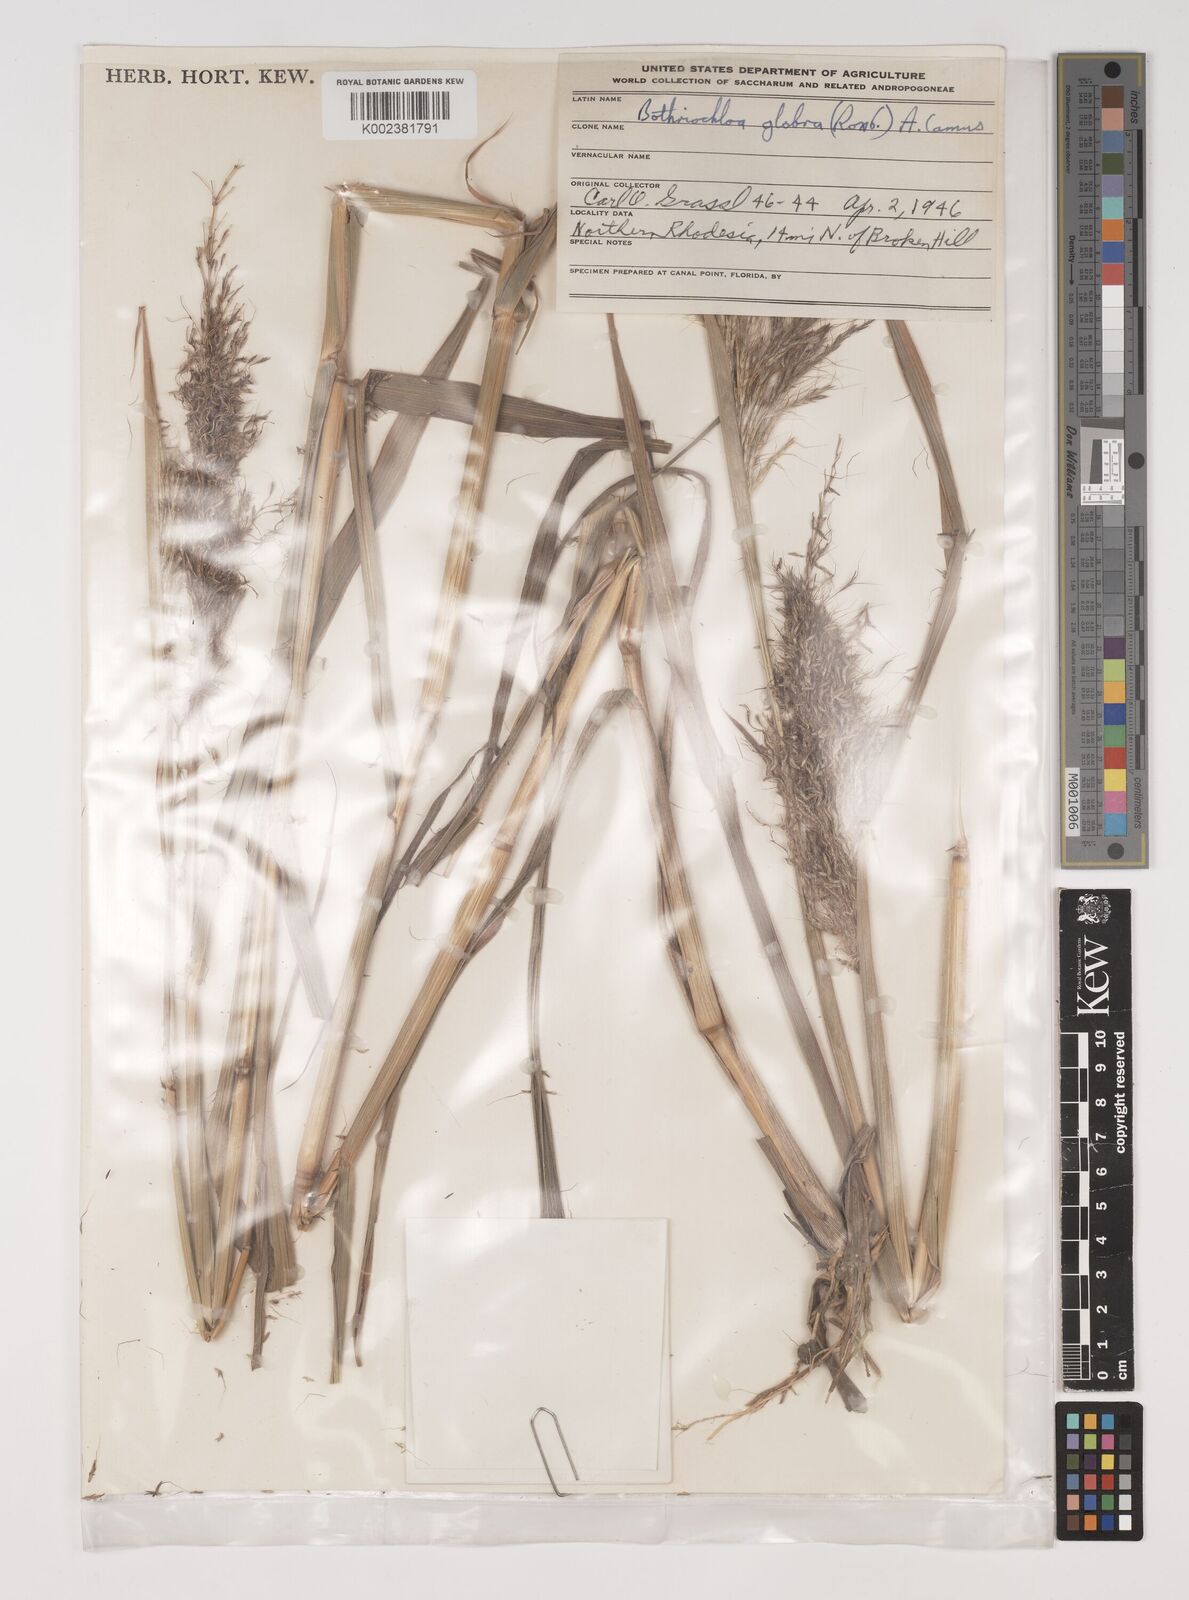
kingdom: Plantae
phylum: Tracheophyta
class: Liliopsida
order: Poales
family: Poaceae
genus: Bothriochloa
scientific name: Bothriochloa bladhii
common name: Caucasian bluestem
